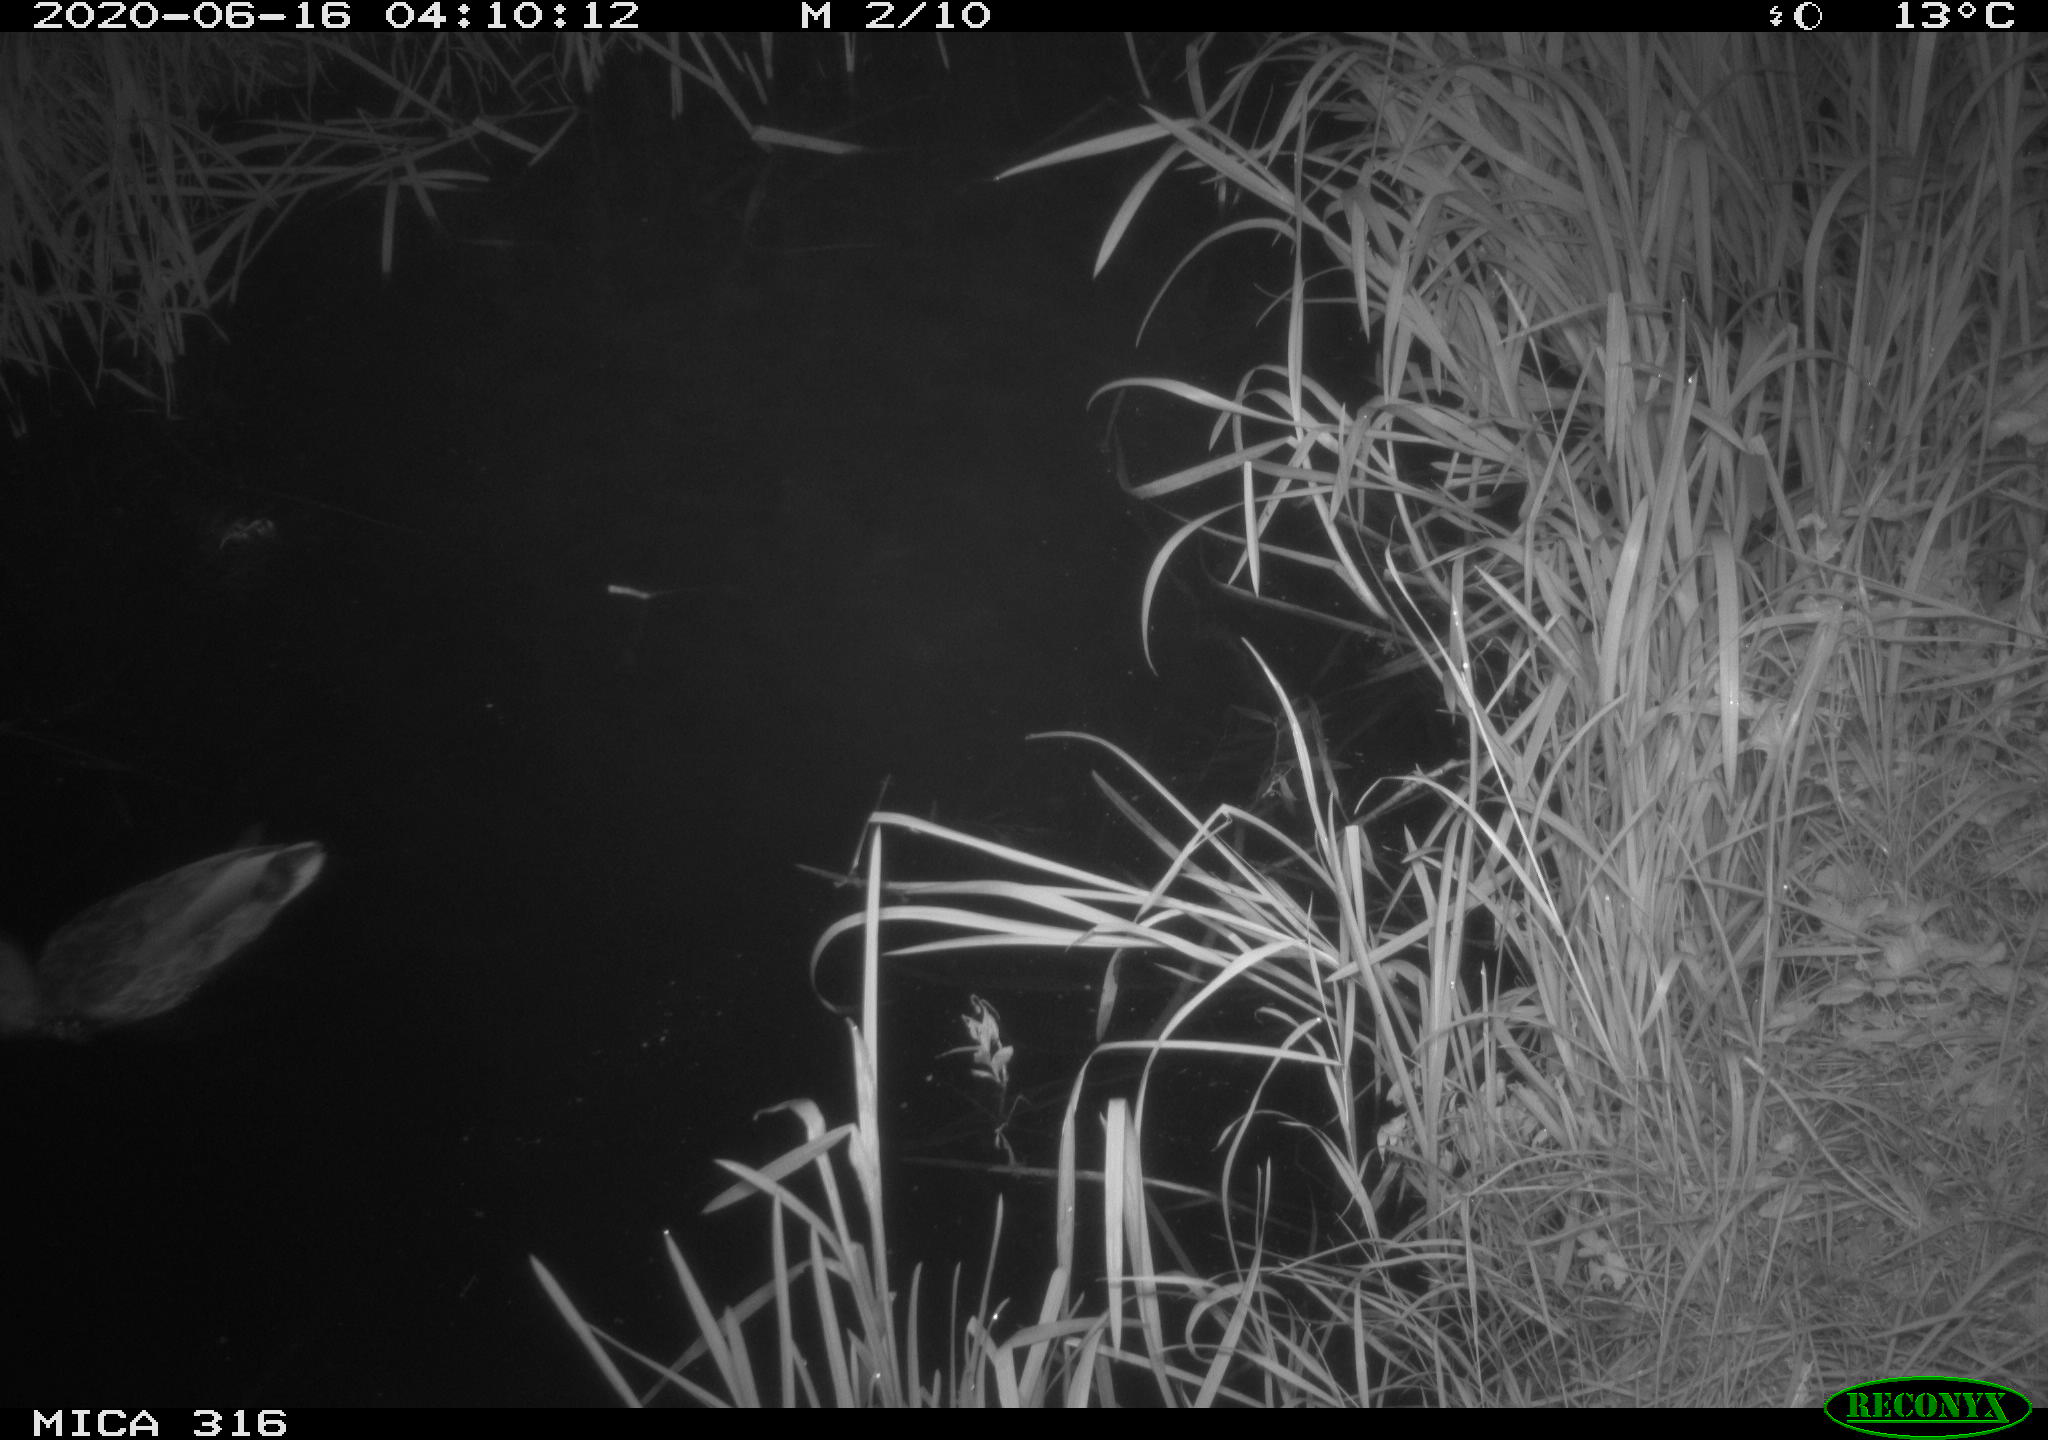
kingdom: Animalia
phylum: Chordata
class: Aves
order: Anseriformes
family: Anatidae
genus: Anas
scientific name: Anas platyrhynchos
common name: Mallard
